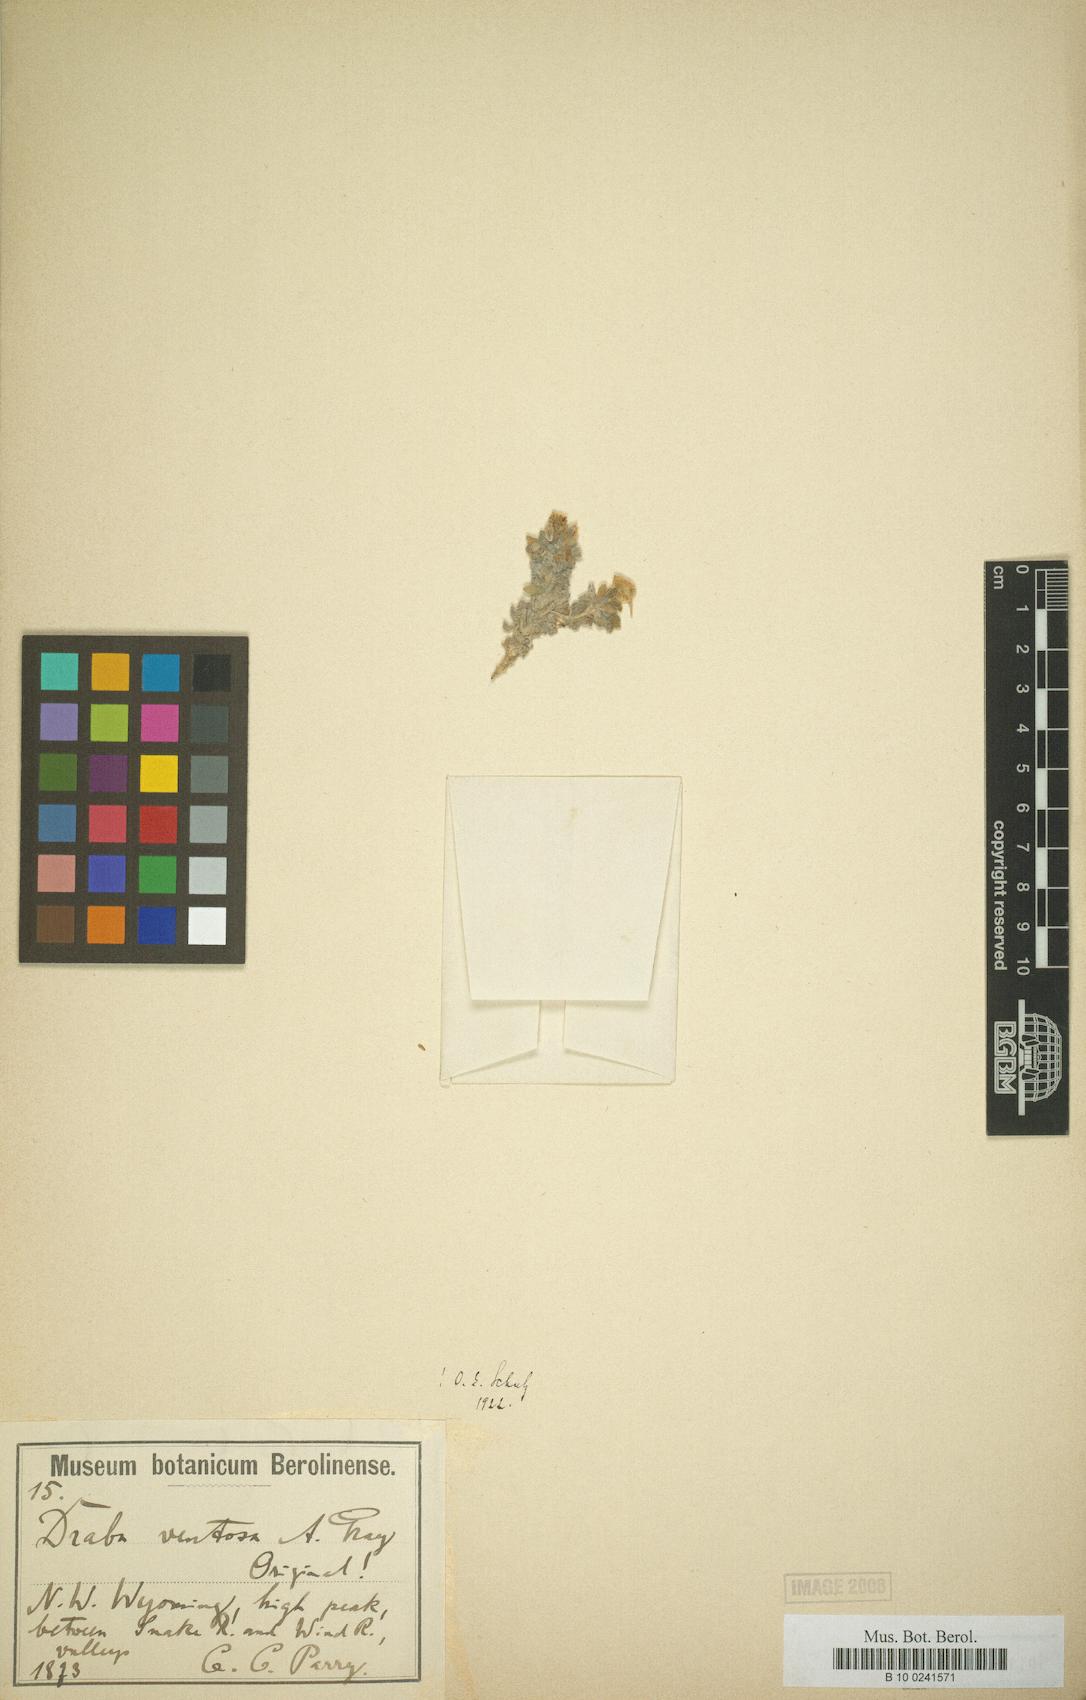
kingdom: Plantae
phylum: Tracheophyta
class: Magnoliopsida
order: Brassicales
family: Brassicaceae
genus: Draba
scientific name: Draba ventosa
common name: Wind river draba
